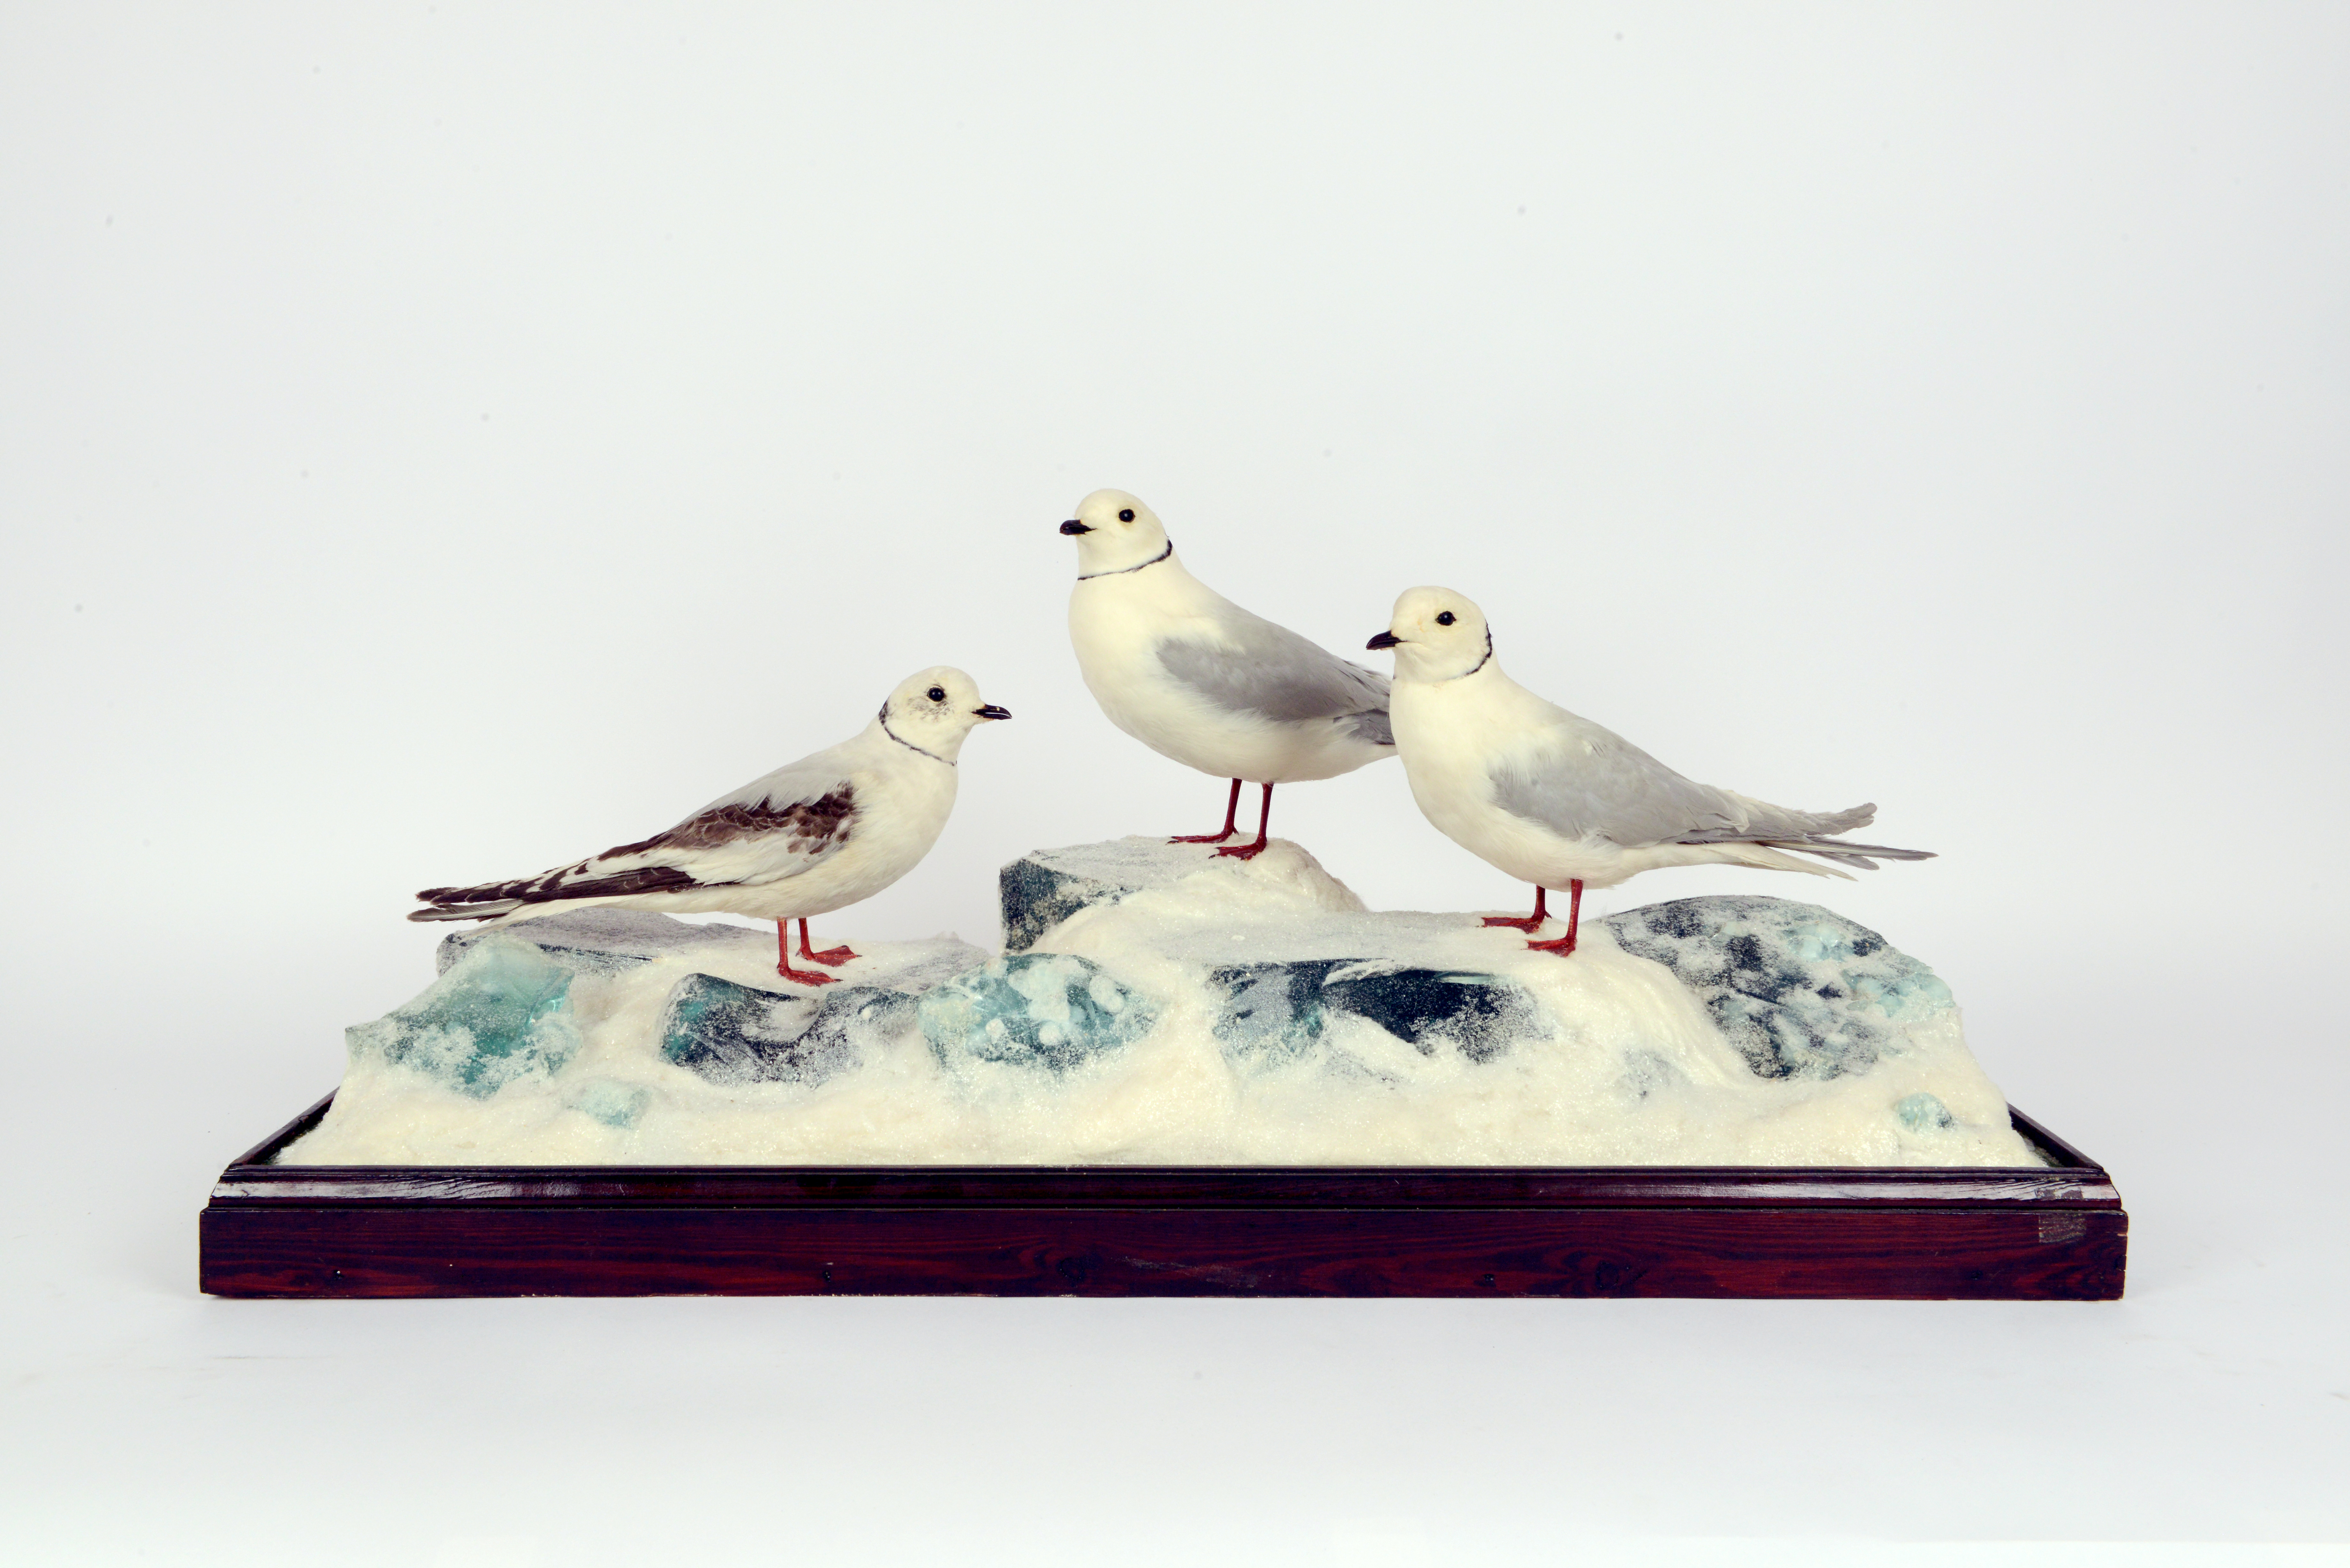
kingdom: Animalia
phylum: Chordata
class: Aves
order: Charadriiformes
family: Laridae
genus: Rhodostethia
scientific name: Rhodostethia rosea
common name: Ross's gull
